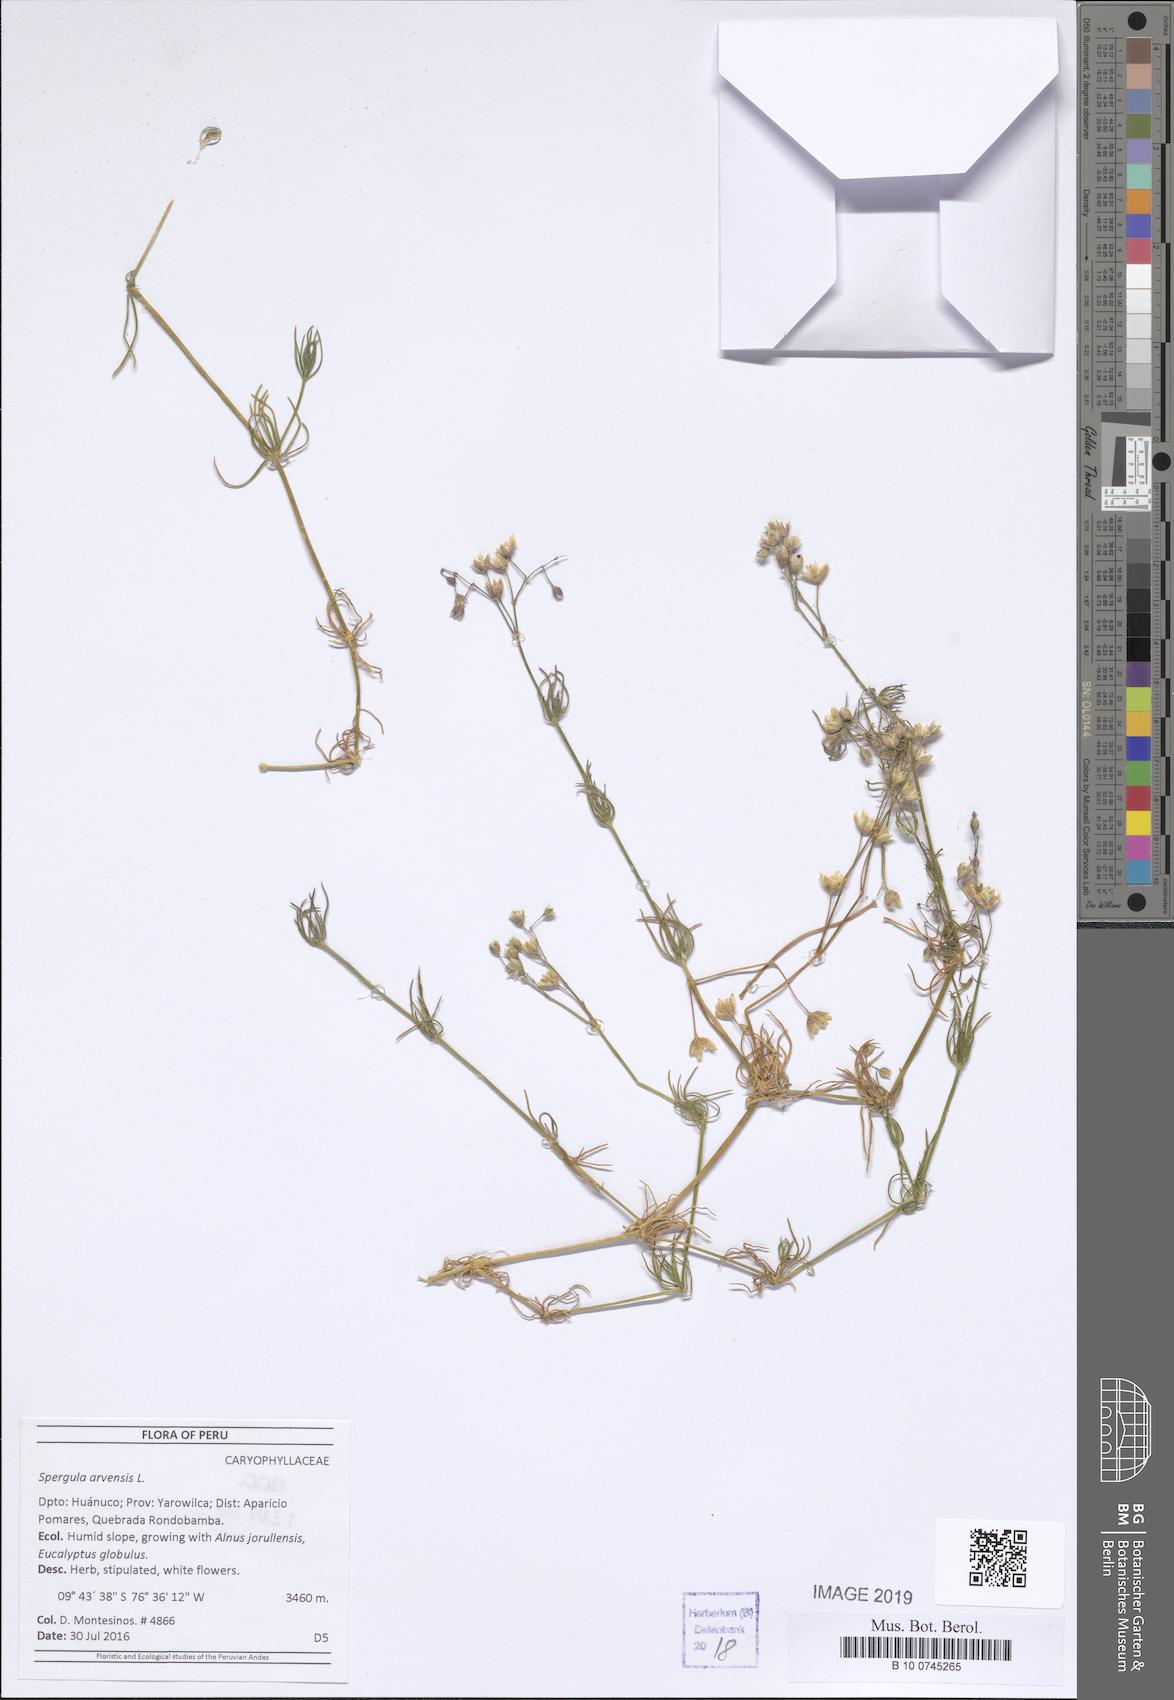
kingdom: Plantae
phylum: Tracheophyta
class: Magnoliopsida
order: Caryophyllales
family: Caryophyllaceae
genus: Spergula
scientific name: Spergula arvensis
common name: Corn spurrey
